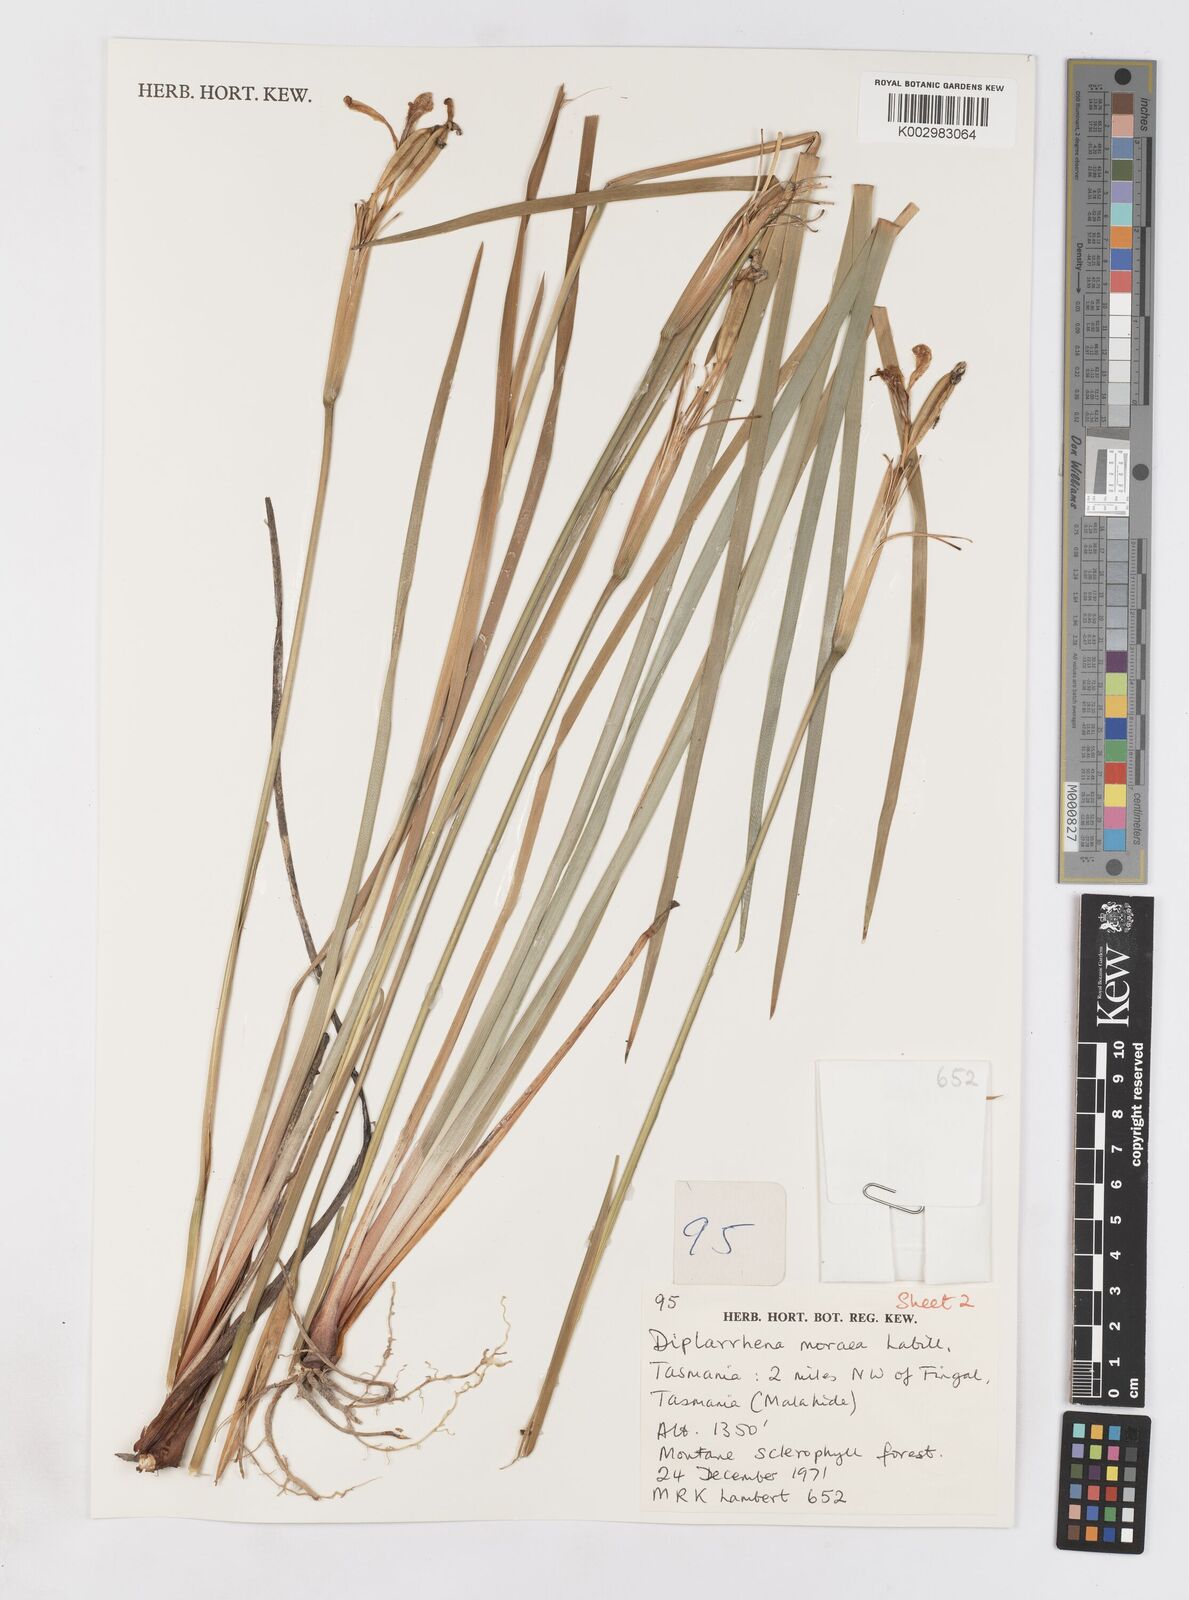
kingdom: Plantae
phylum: Tracheophyta
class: Liliopsida
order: Asparagales
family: Iridaceae
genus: Diplarrena
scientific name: Diplarrena moraea
